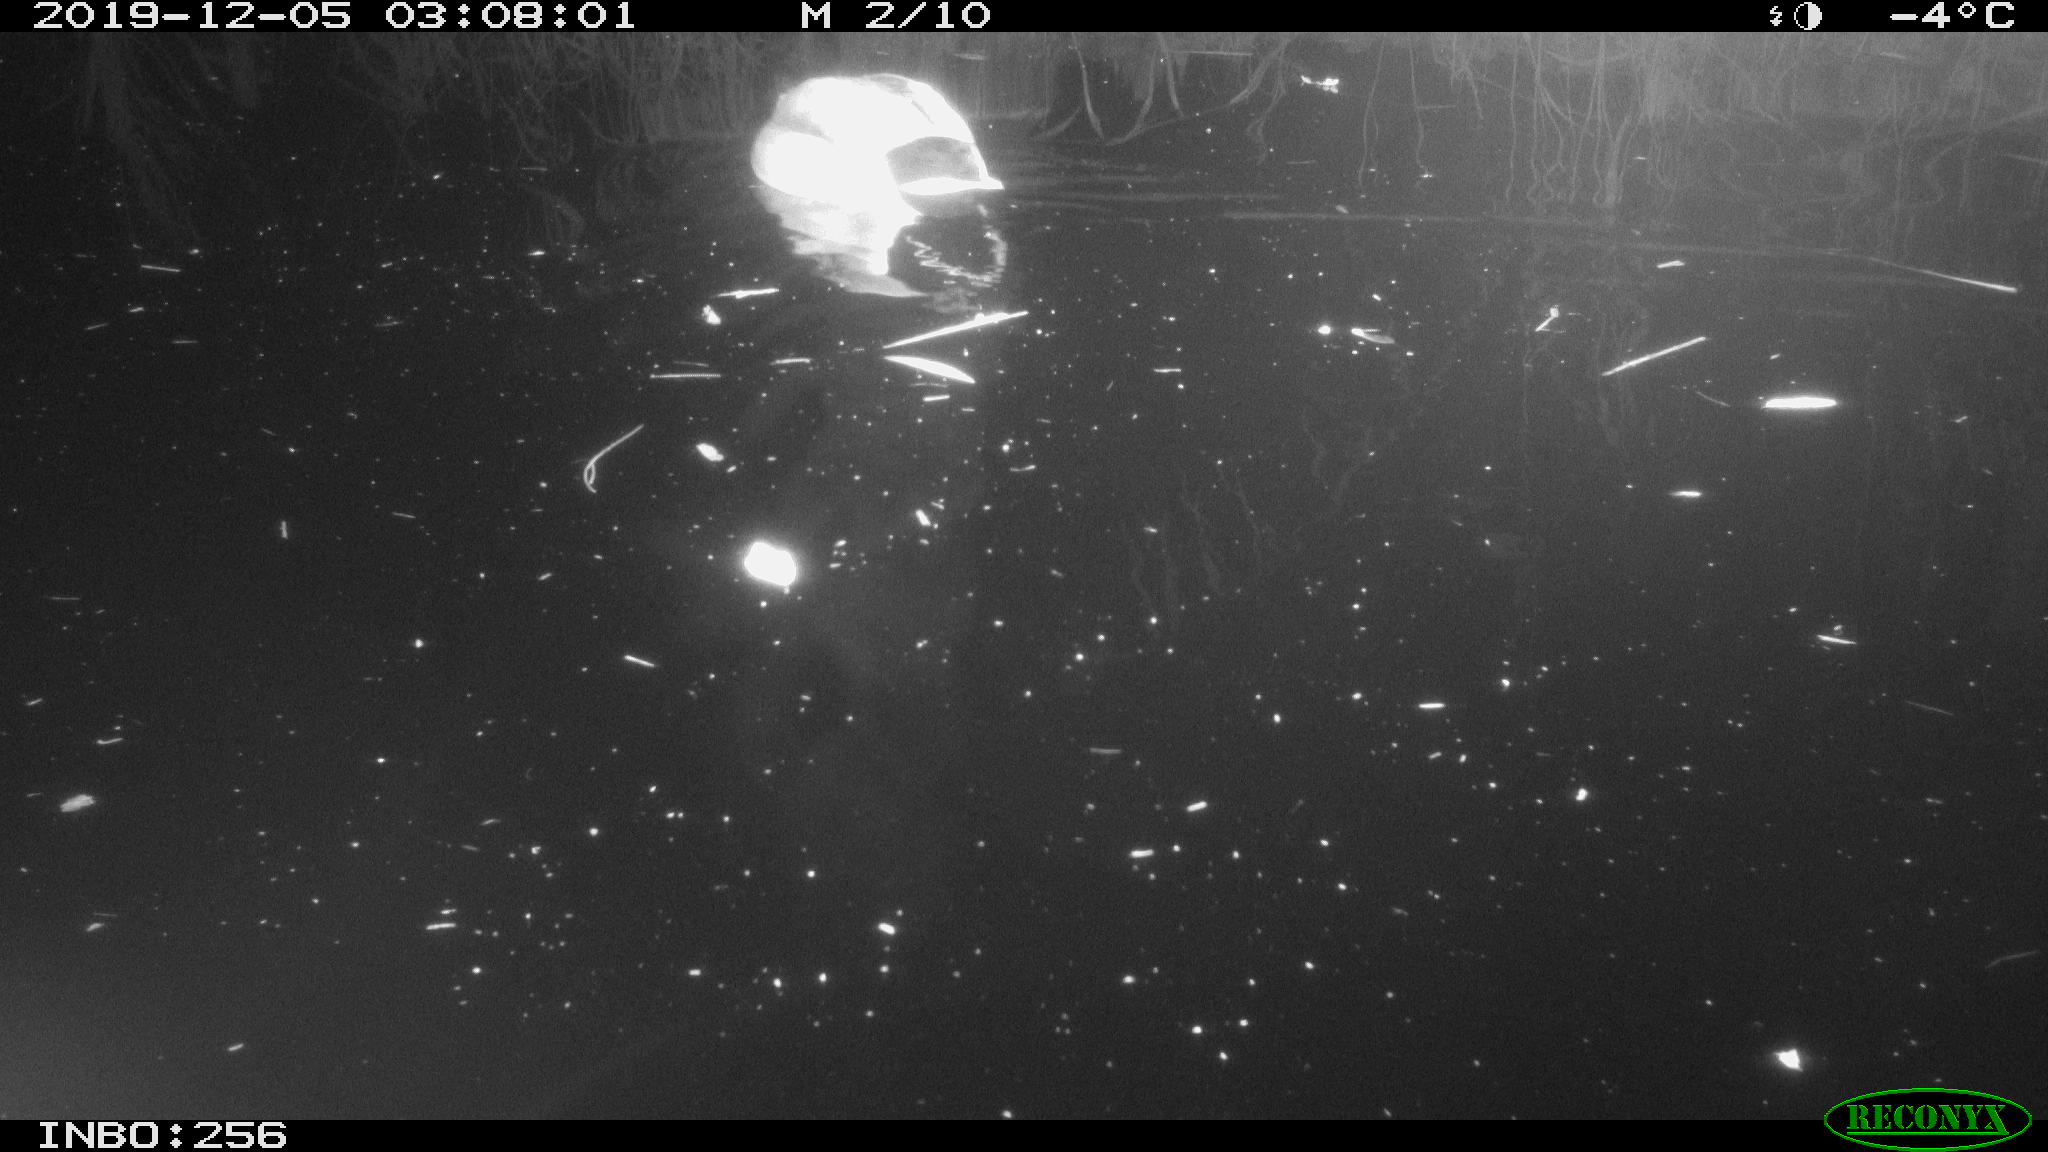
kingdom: Animalia
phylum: Chordata
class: Aves
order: Anseriformes
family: Anatidae
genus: Anas
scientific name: Anas platyrhynchos
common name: Mallard
